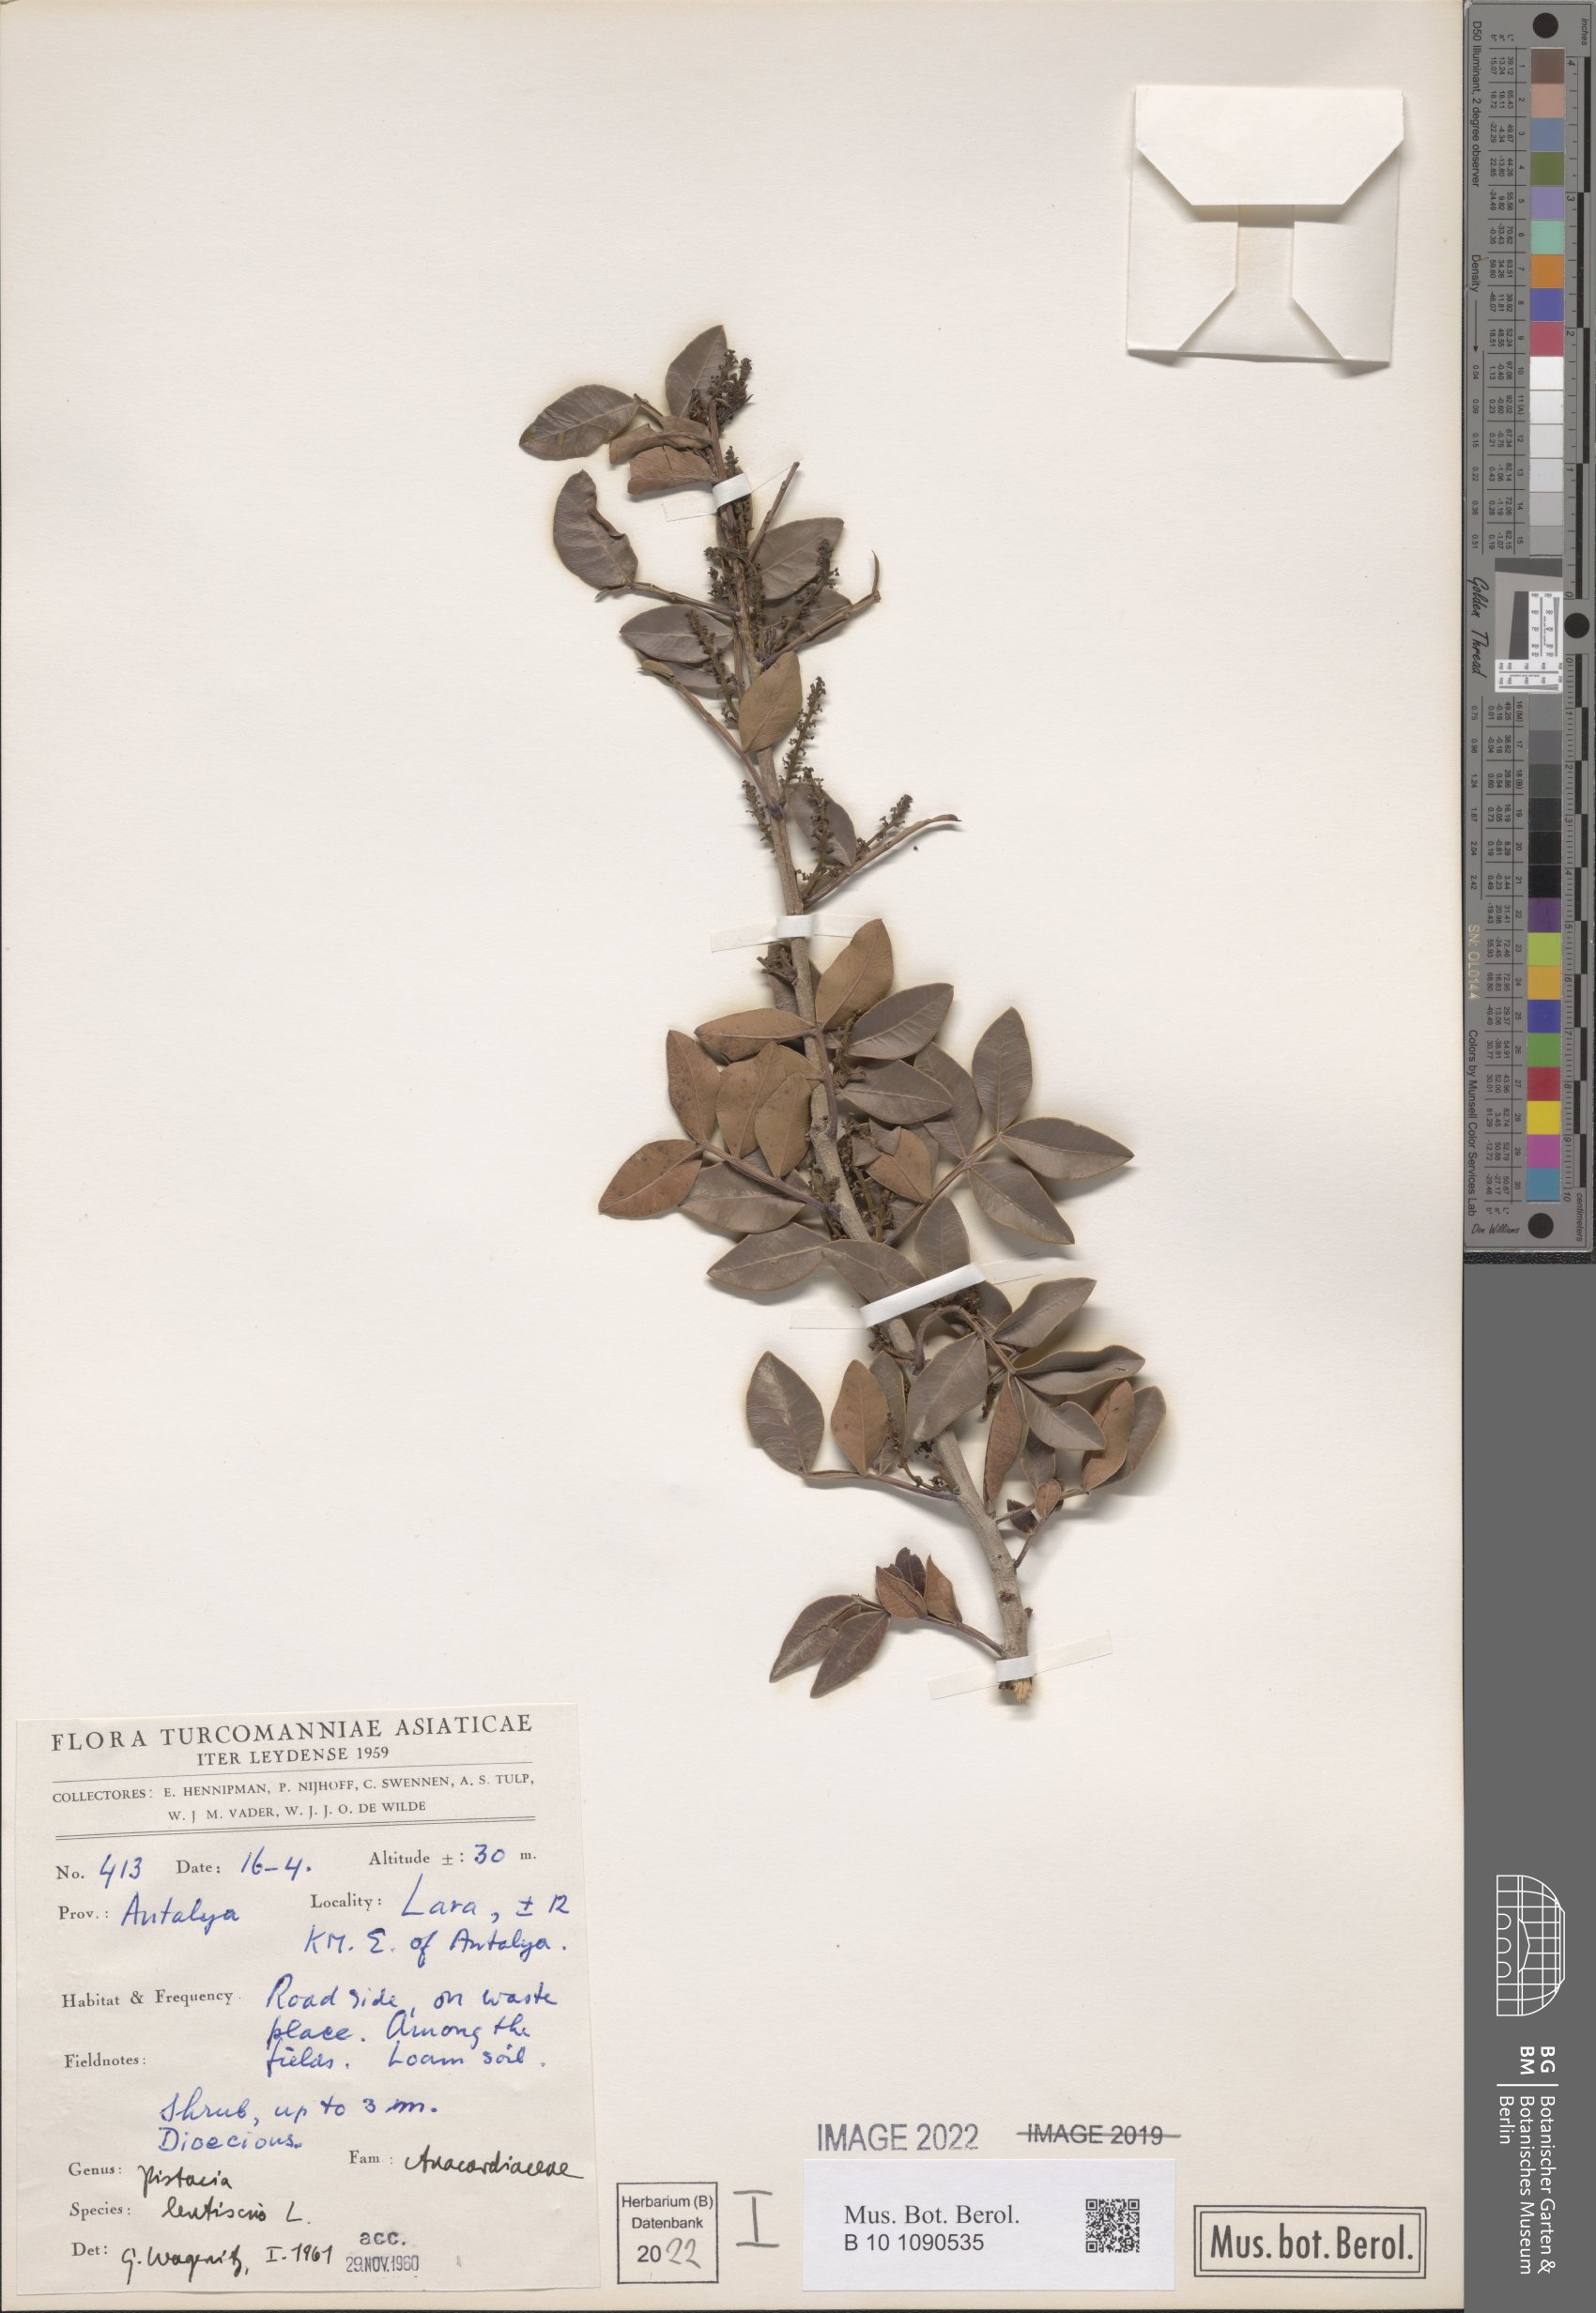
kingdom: Plantae
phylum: Tracheophyta
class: Magnoliopsida
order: Sapindales
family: Anacardiaceae
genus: Pistacia
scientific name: Pistacia lentiscus
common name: Lentisk
